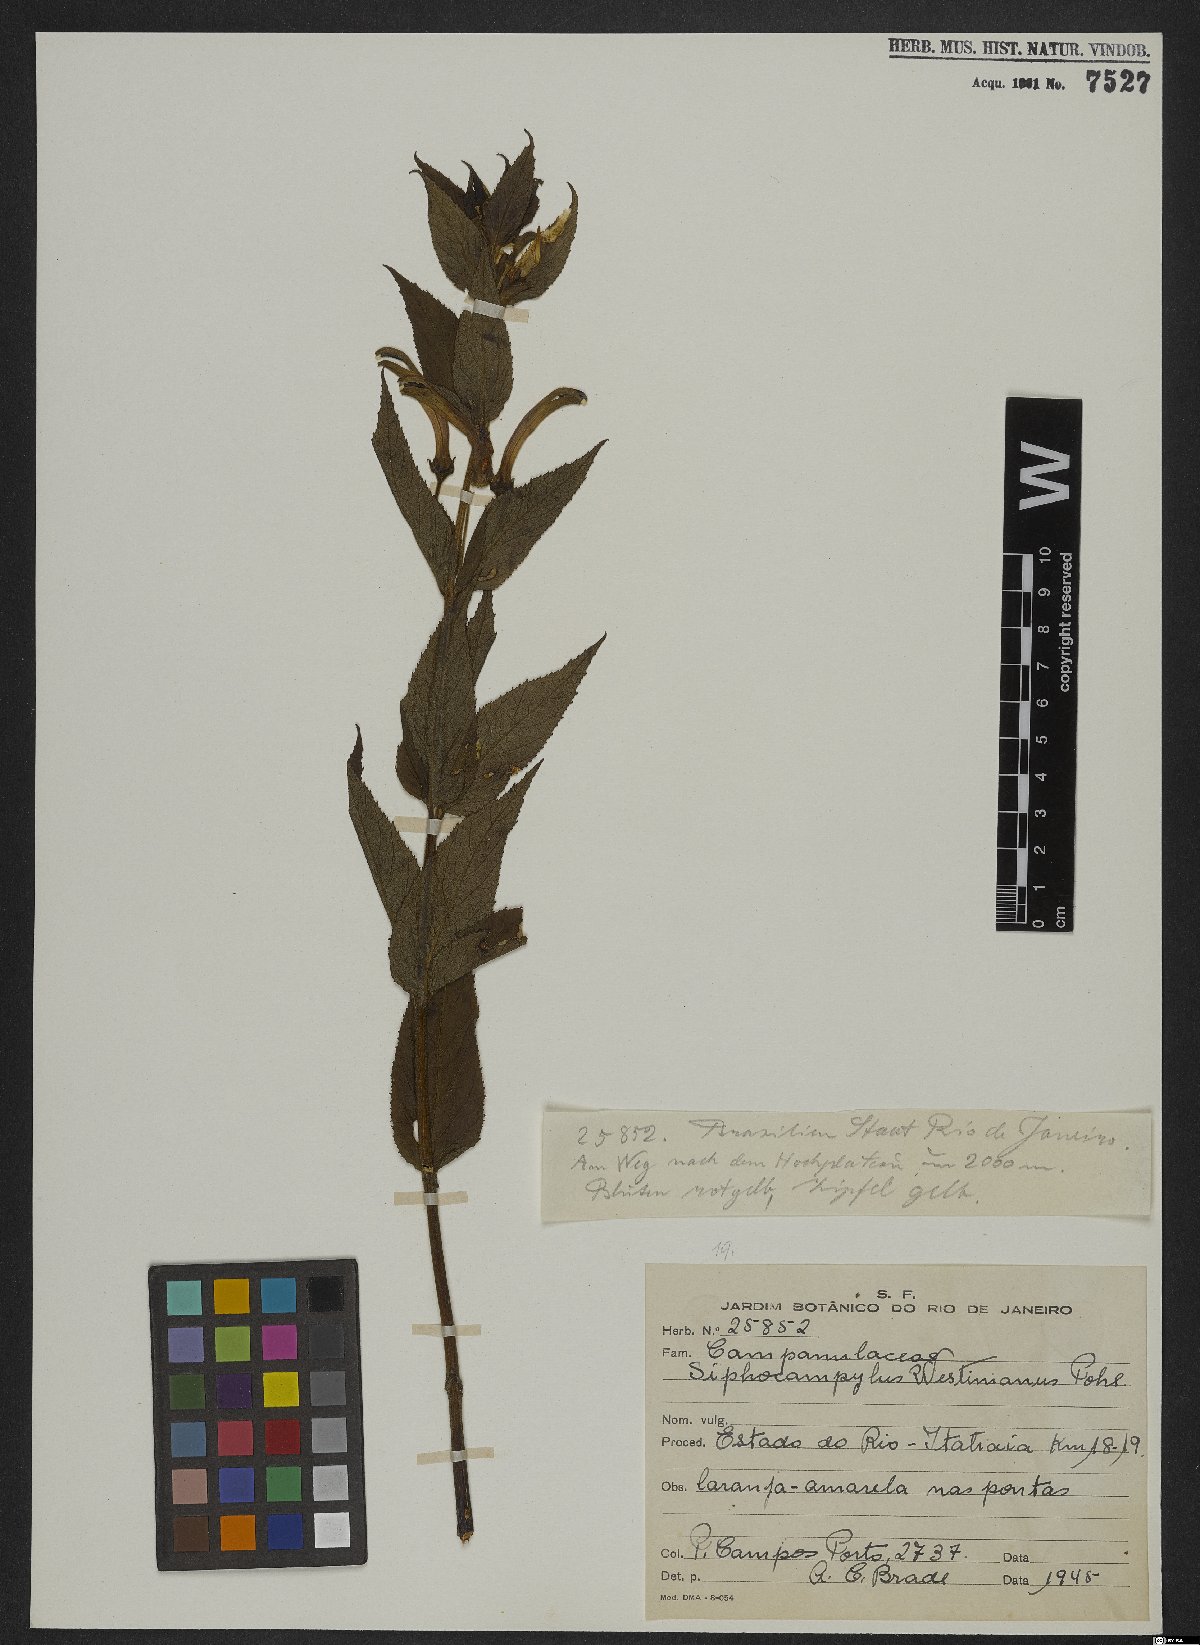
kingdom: Plantae
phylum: Tracheophyta
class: Magnoliopsida
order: Asterales
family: Campanulaceae
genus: Siphocampylus
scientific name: Siphocampylus westinianus
